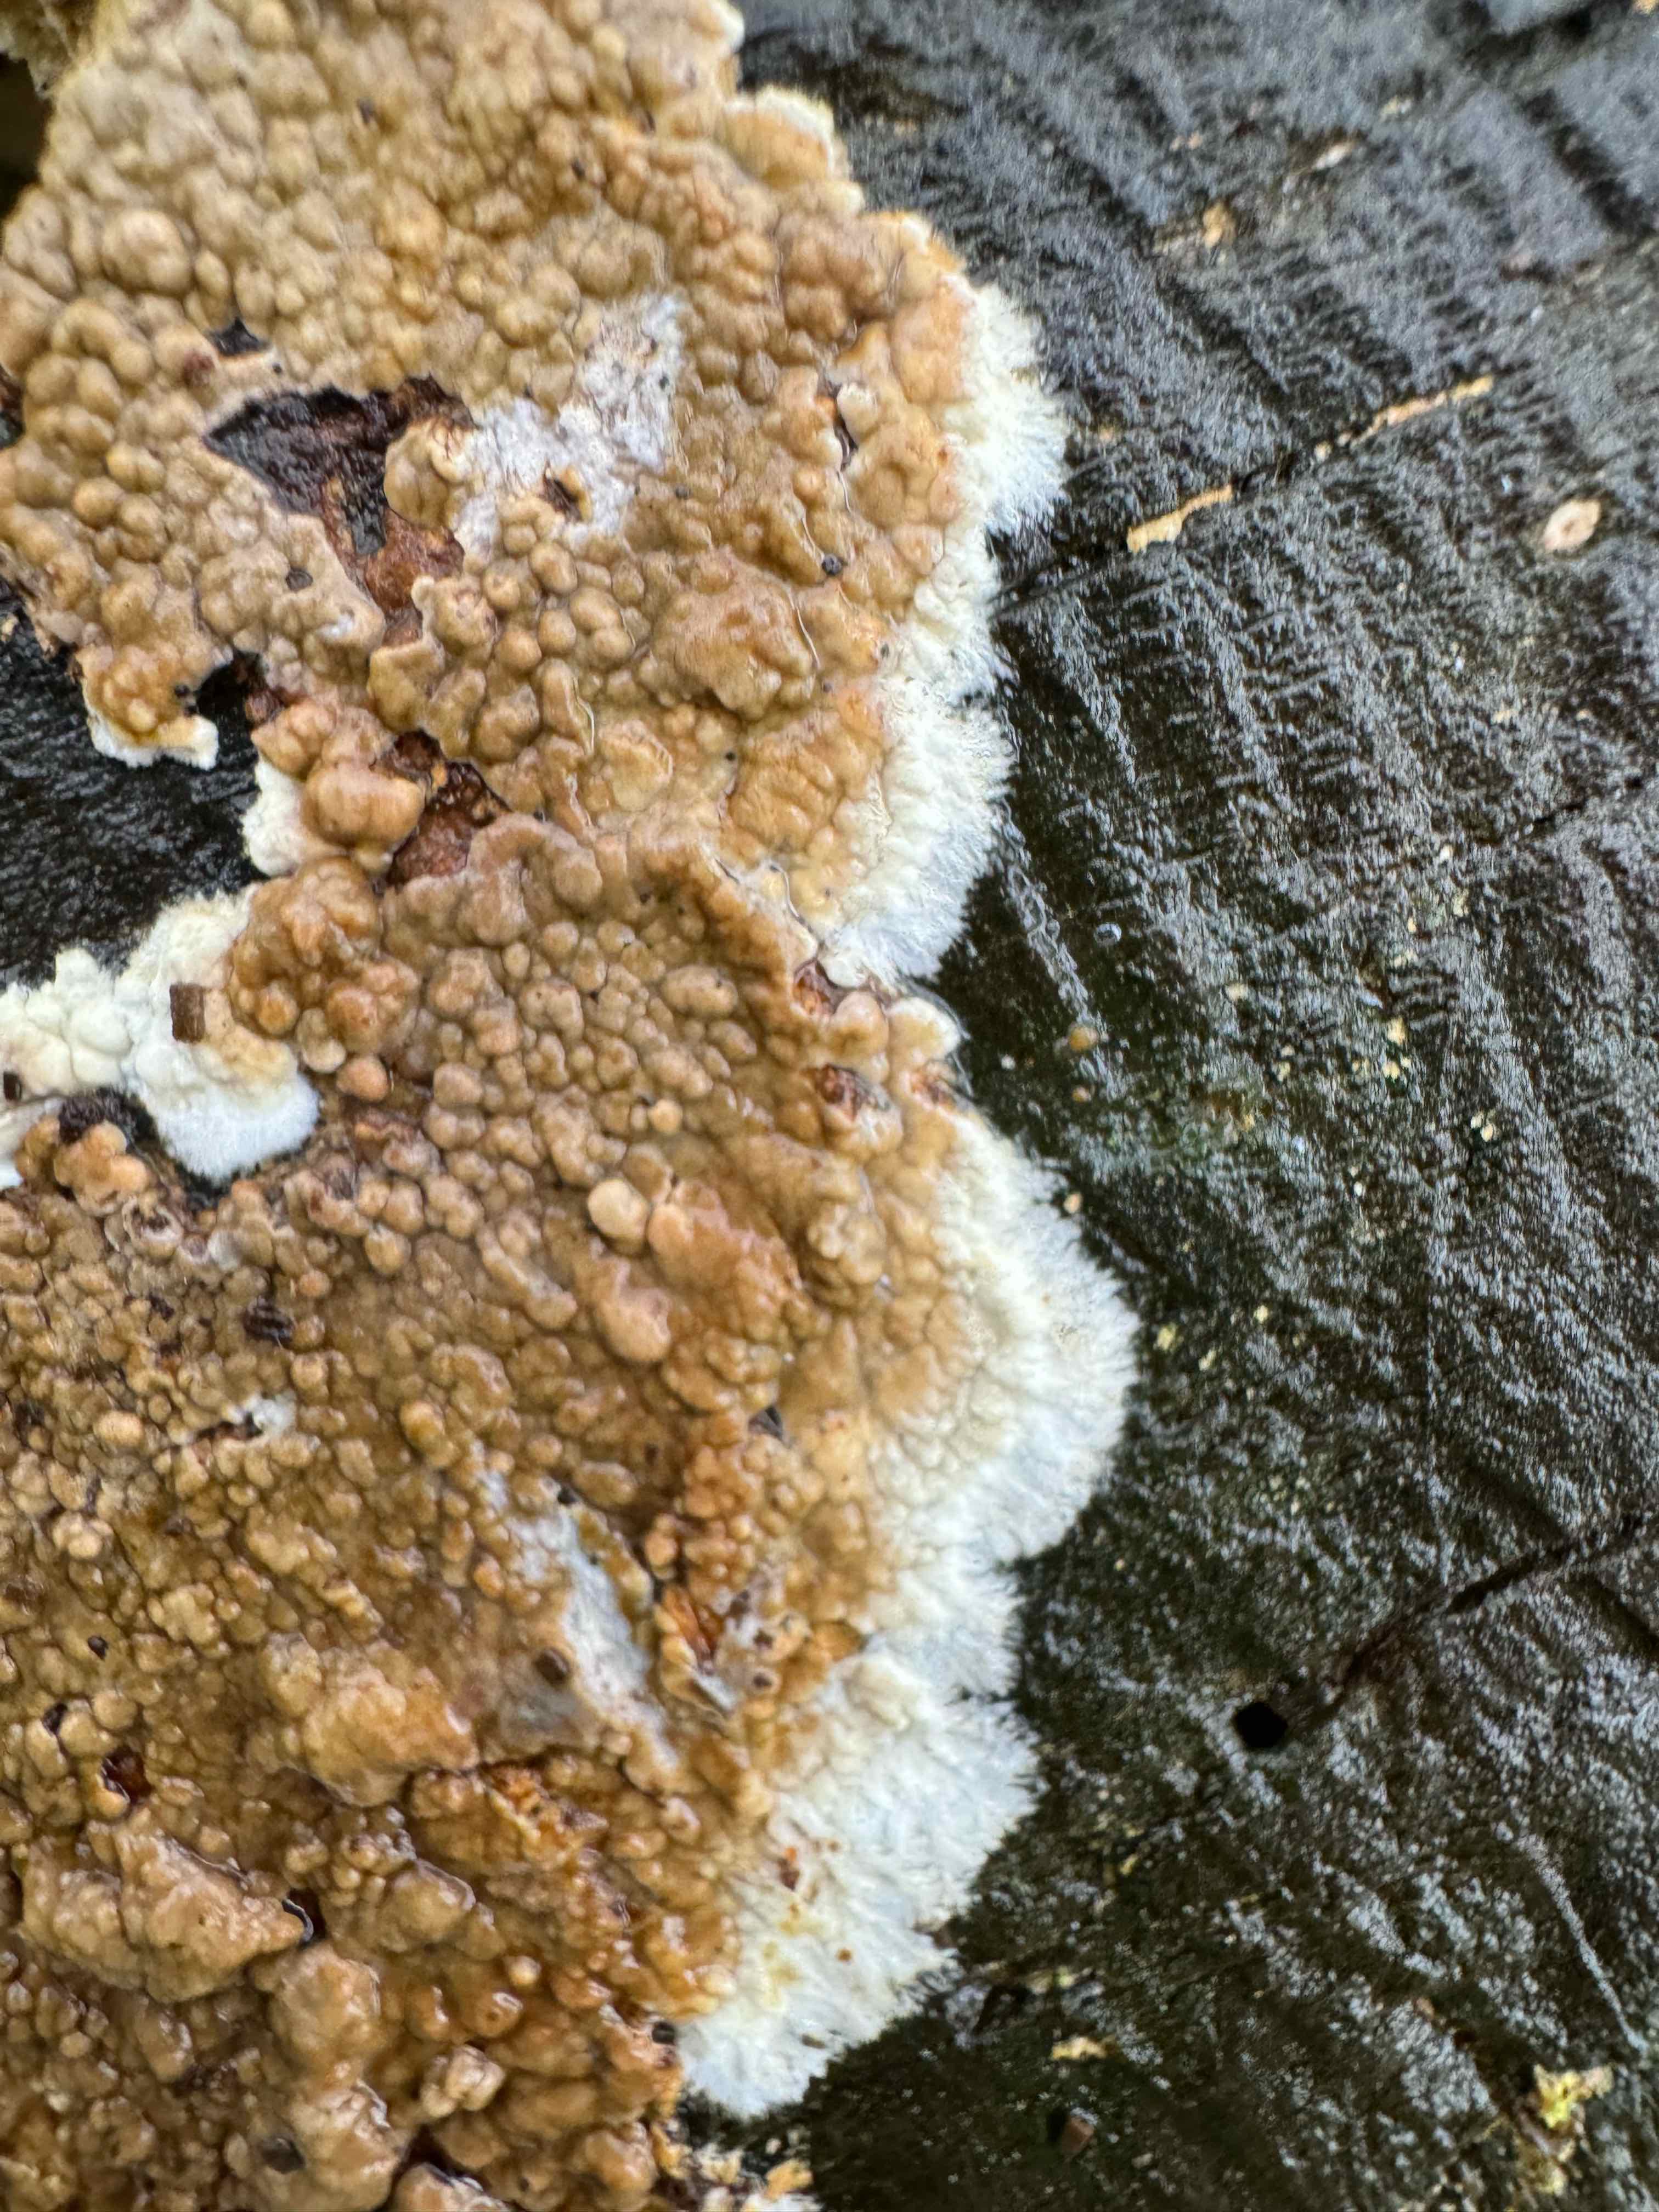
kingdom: Fungi
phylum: Basidiomycota
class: Agaricomycetes
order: Boletales
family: Coniophoraceae
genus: Coniophora
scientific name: Coniophora puteana
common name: gul tømmersvamp
